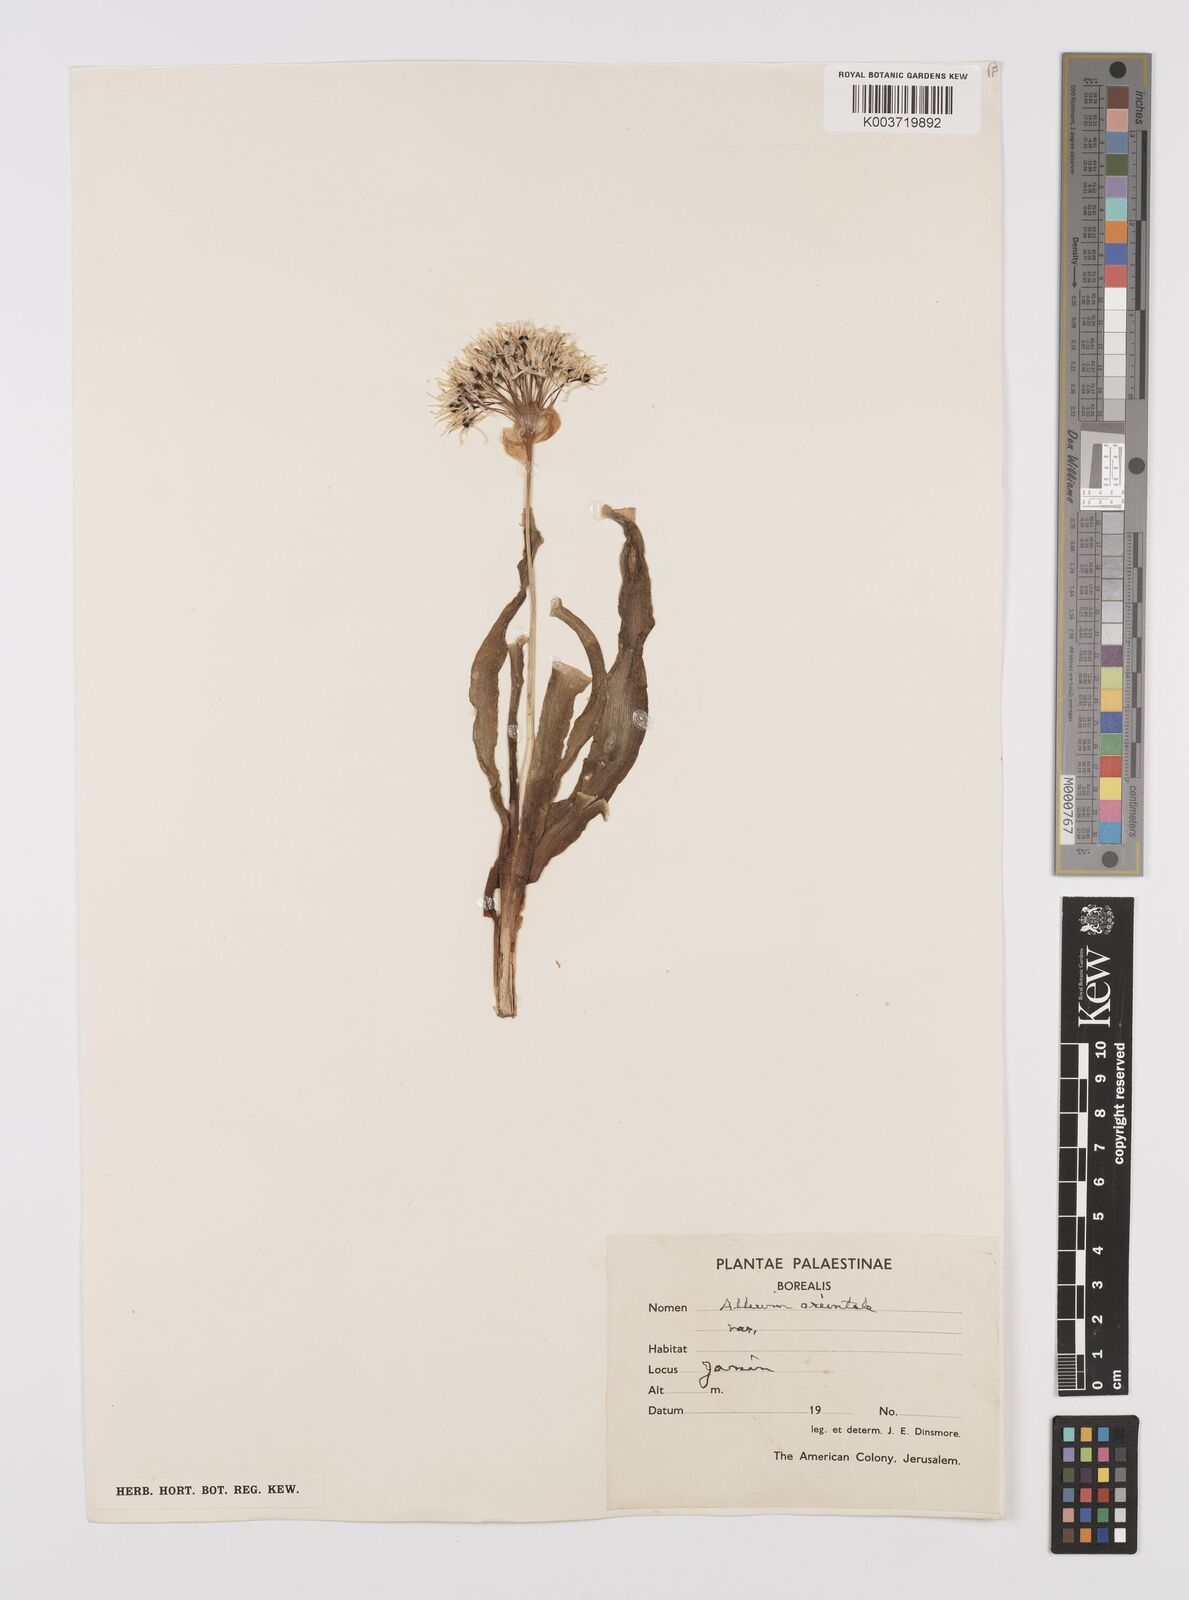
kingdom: Plantae
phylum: Tracheophyta
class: Liliopsida
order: Asparagales
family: Amaryllidaceae
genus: Allium
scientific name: Allium orientale
